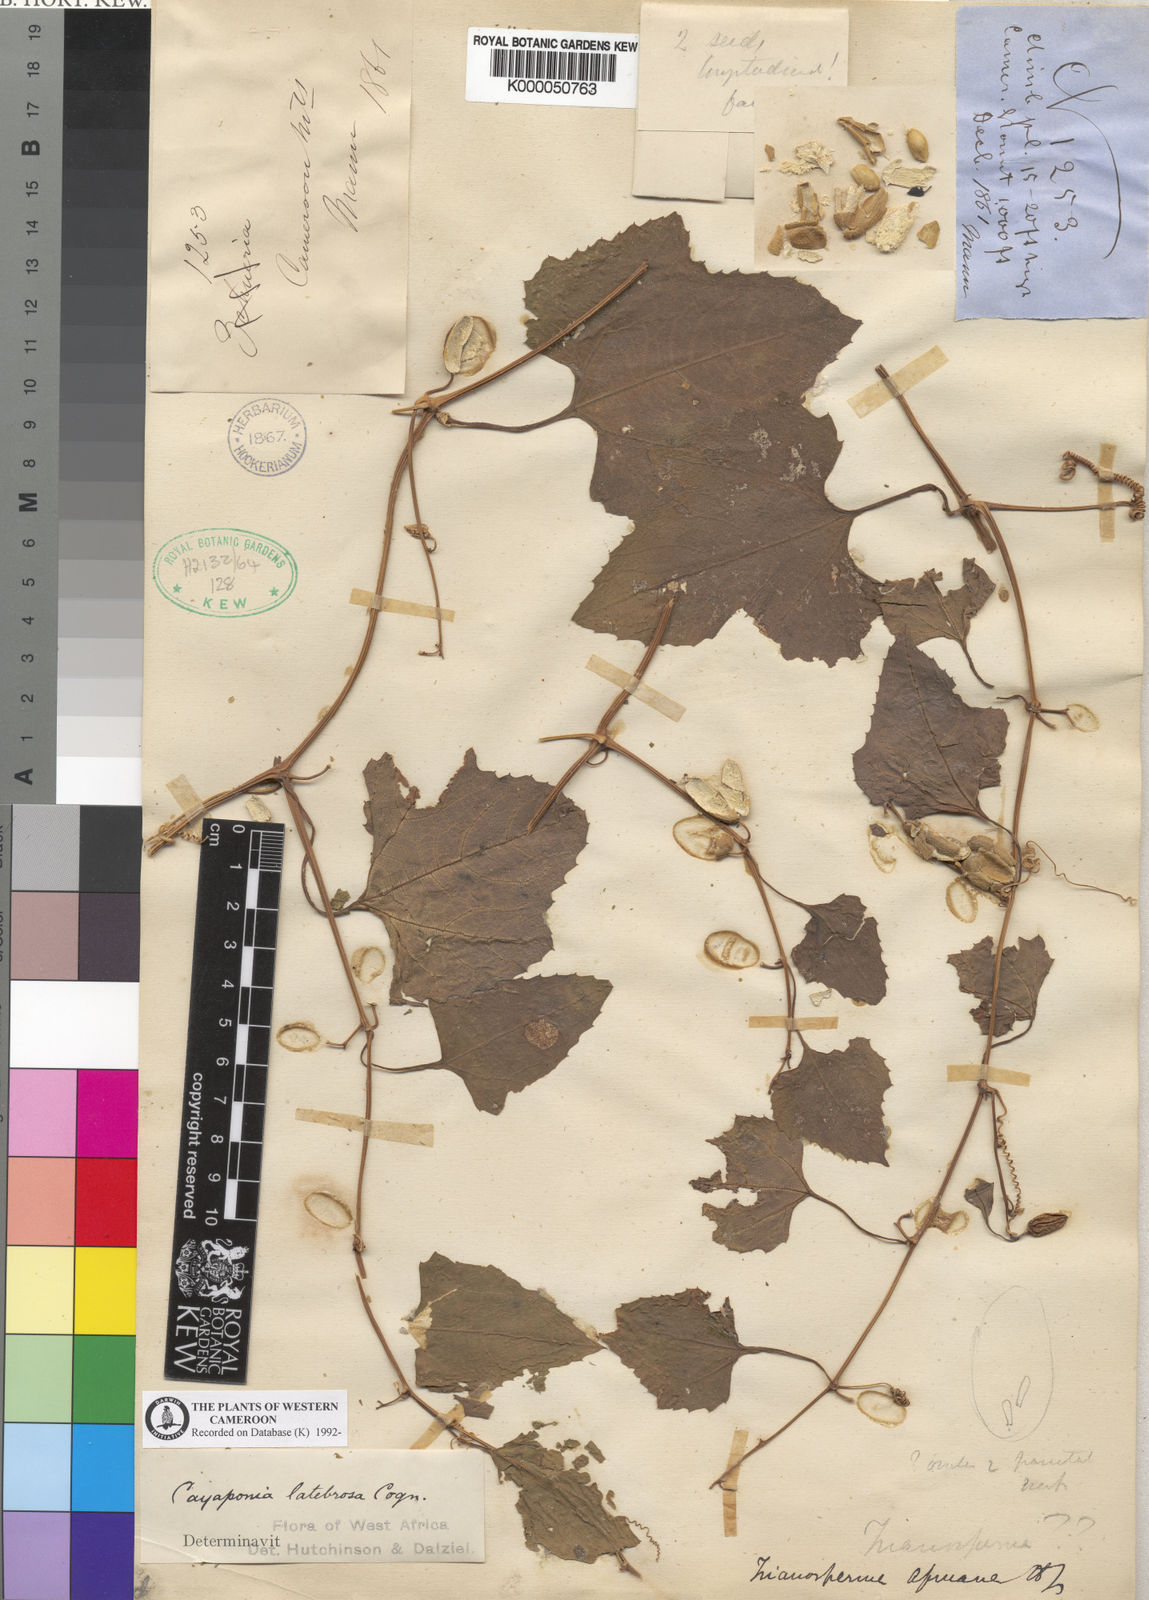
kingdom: Plantae
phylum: Tracheophyta
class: Magnoliopsida
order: Cucurbitales
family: Cucurbitaceae
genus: Cayaponia
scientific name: Cayaponia africana
